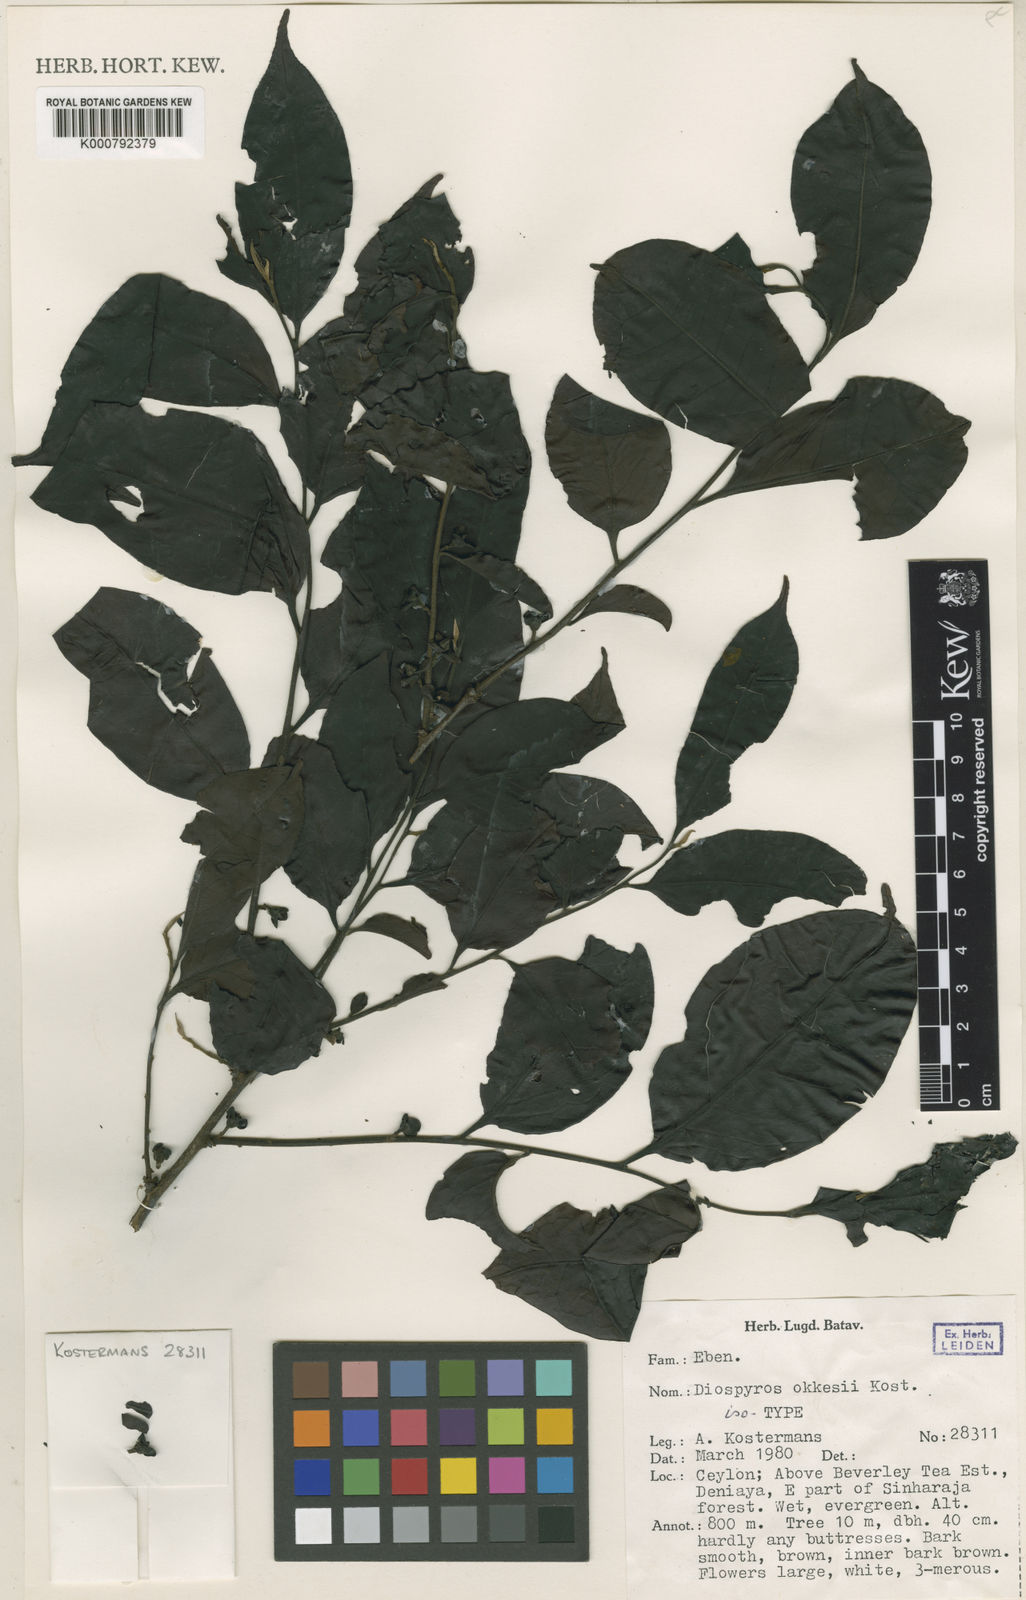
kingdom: Plantae
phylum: Tracheophyta
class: Magnoliopsida
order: Ericales
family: Ebenaceae
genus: Diospyros
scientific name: Diospyros okkesii
